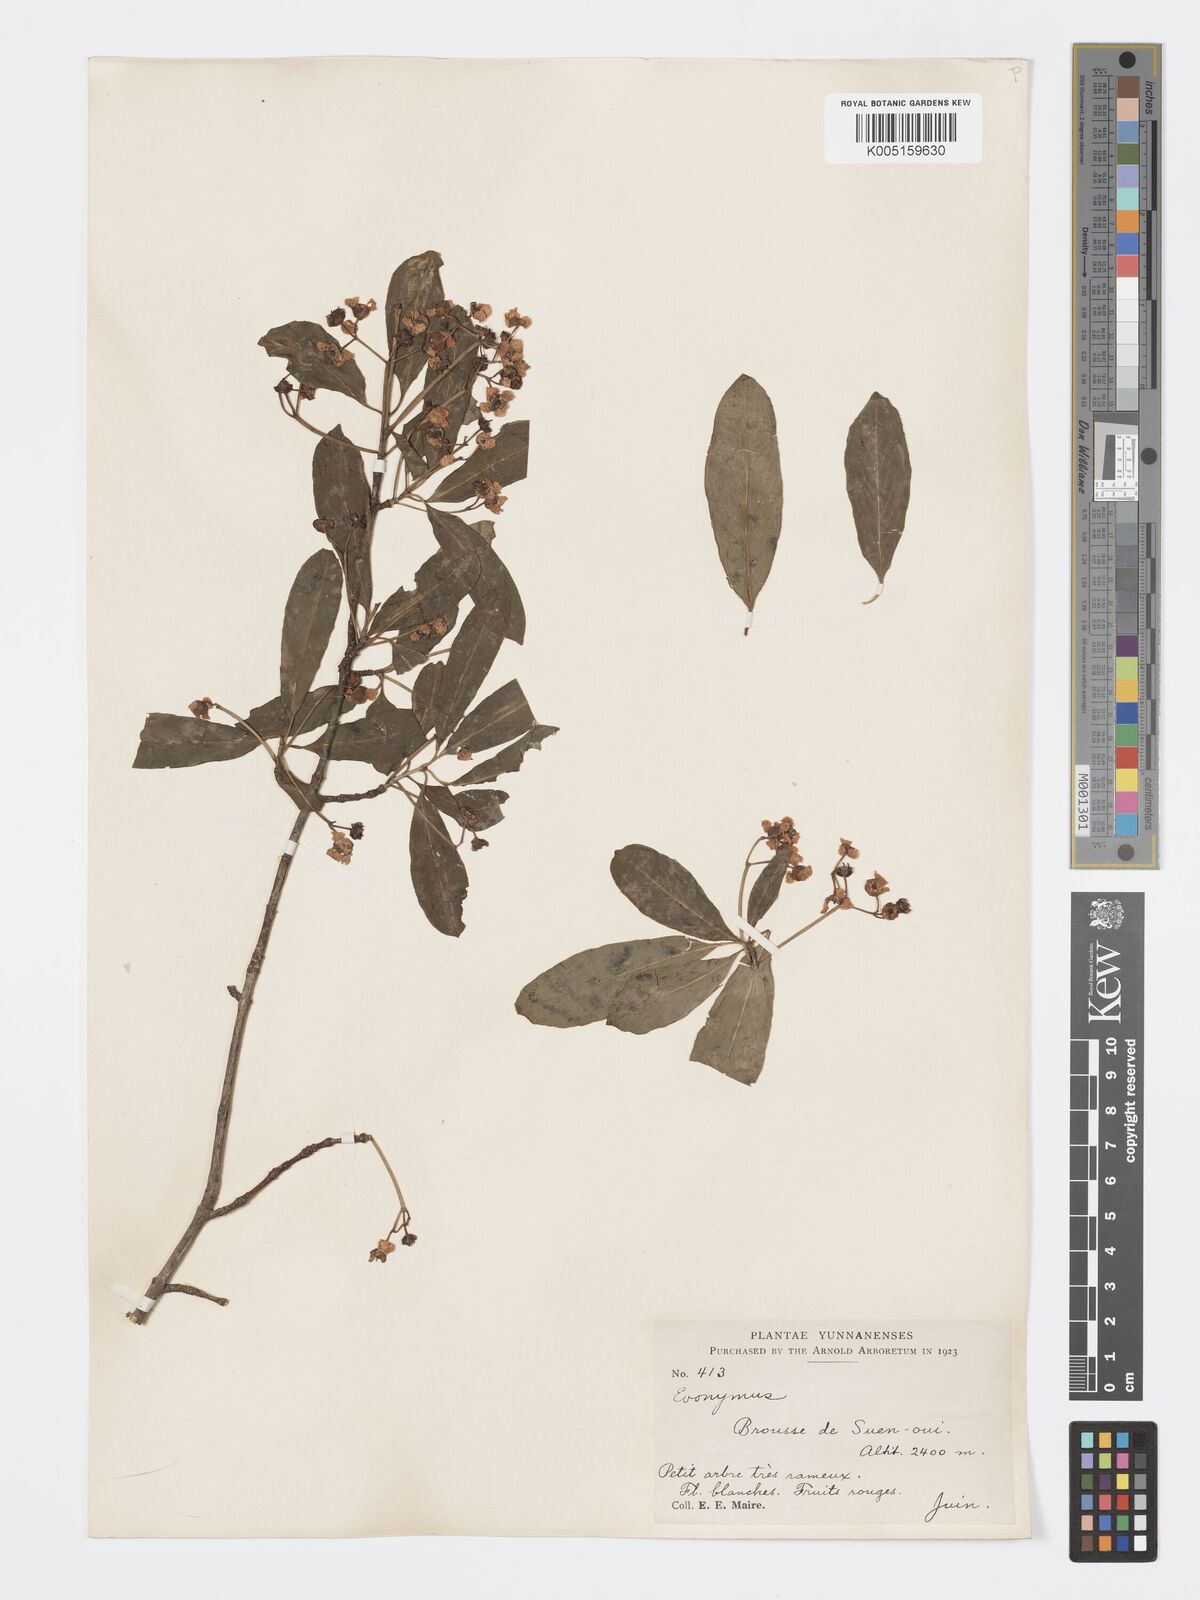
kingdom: Plantae
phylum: Tracheophyta
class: Magnoliopsida
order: Celastrales
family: Celastraceae
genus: Euonymus
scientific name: Euonymus grandiflorus
